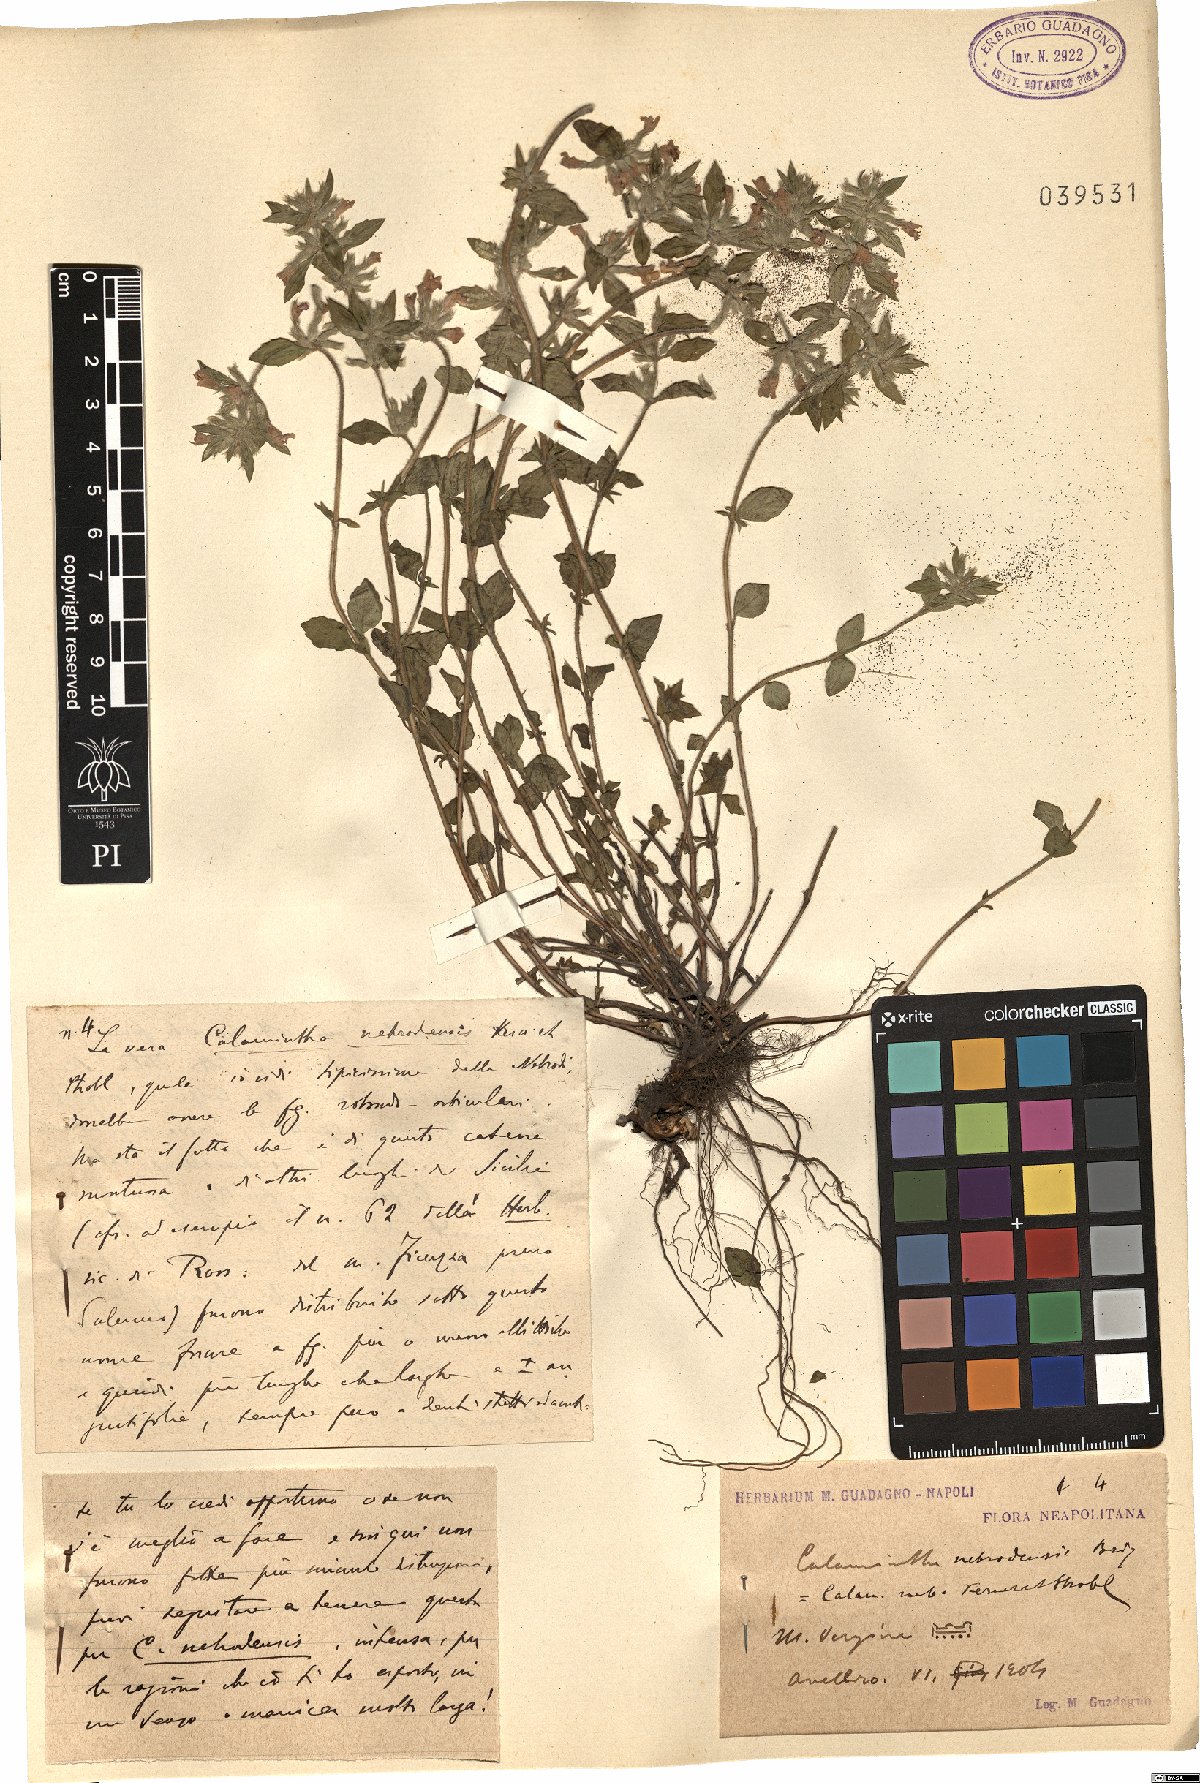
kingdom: Plantae
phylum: Tracheophyta
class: Magnoliopsida
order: Lamiales
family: Lamiaceae
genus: Clinopodium
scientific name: Clinopodium alpinum
